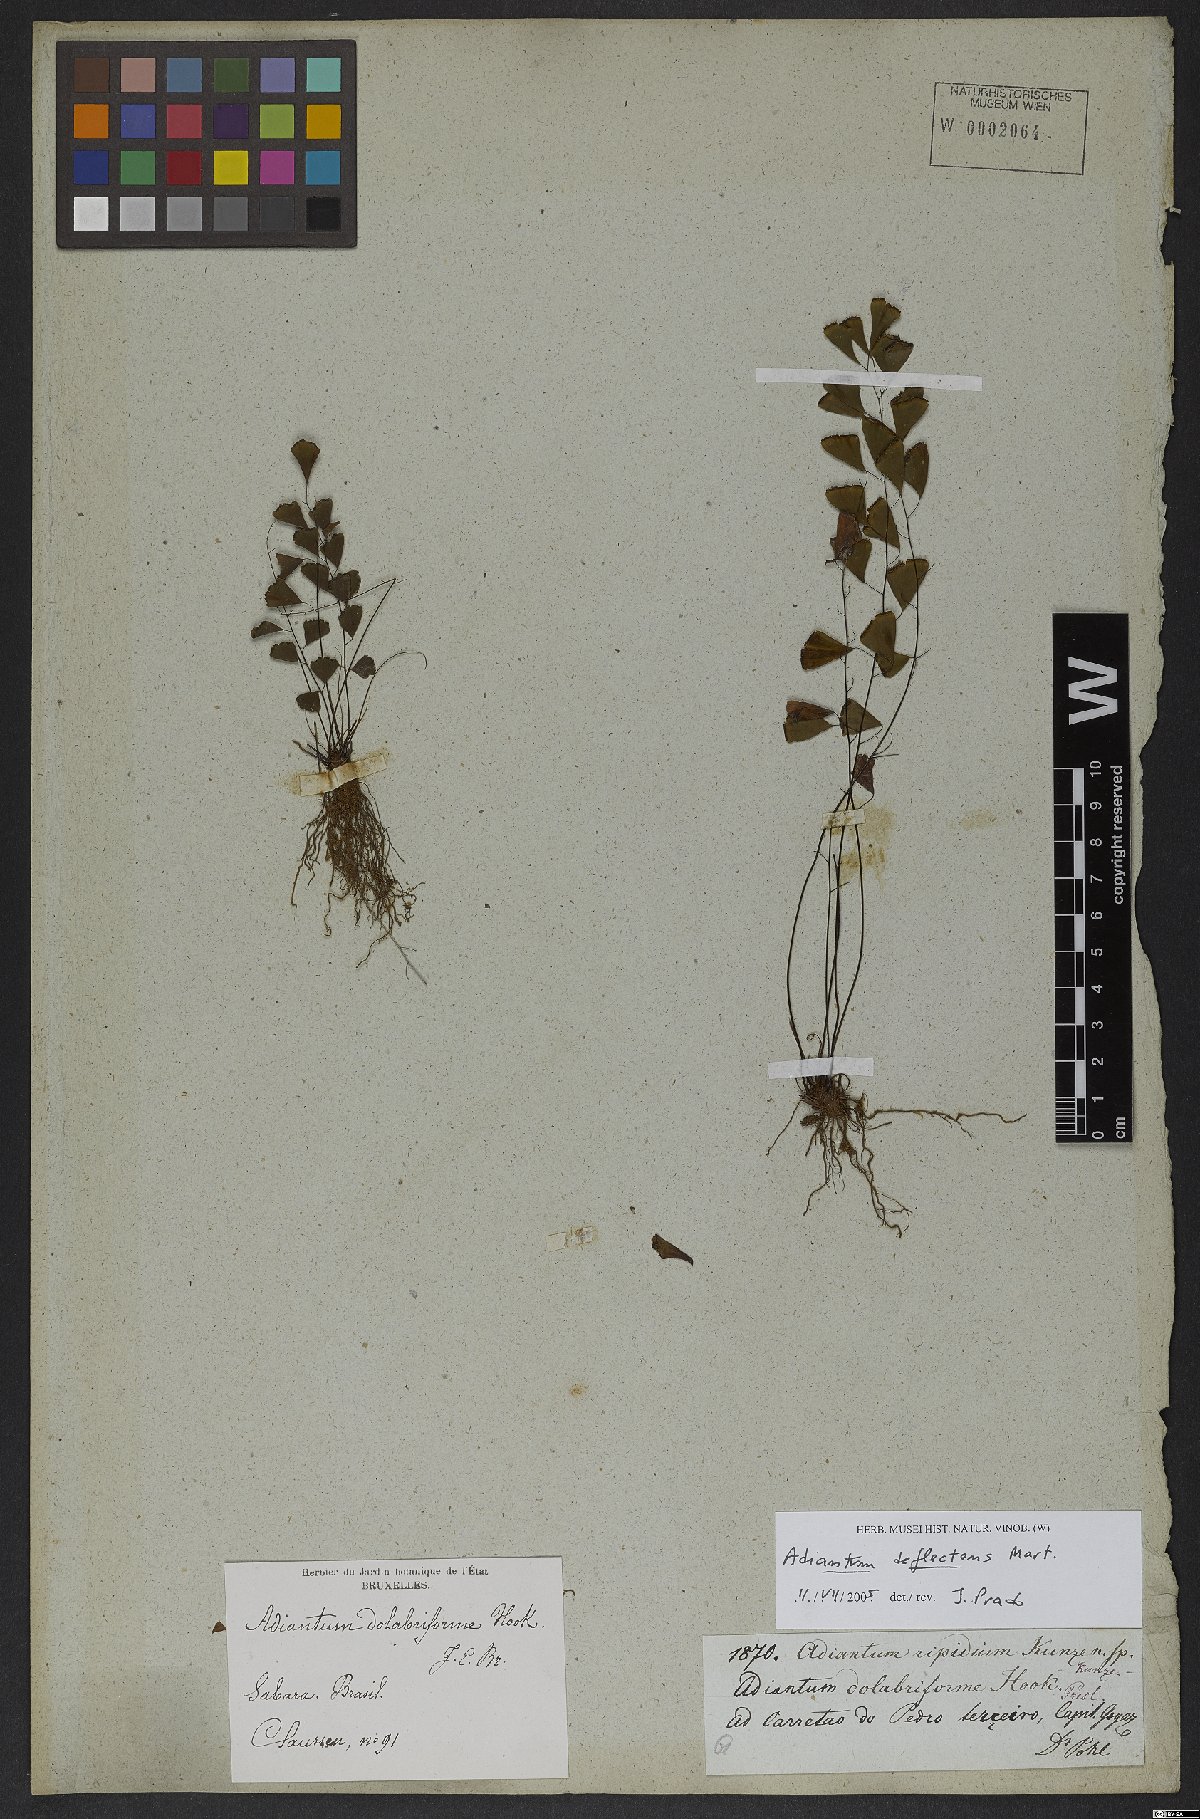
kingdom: Plantae
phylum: Tracheophyta
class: Polypodiopsida
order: Polypodiales
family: Pteridaceae
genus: Adiantum
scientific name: Adiantum deflectens
